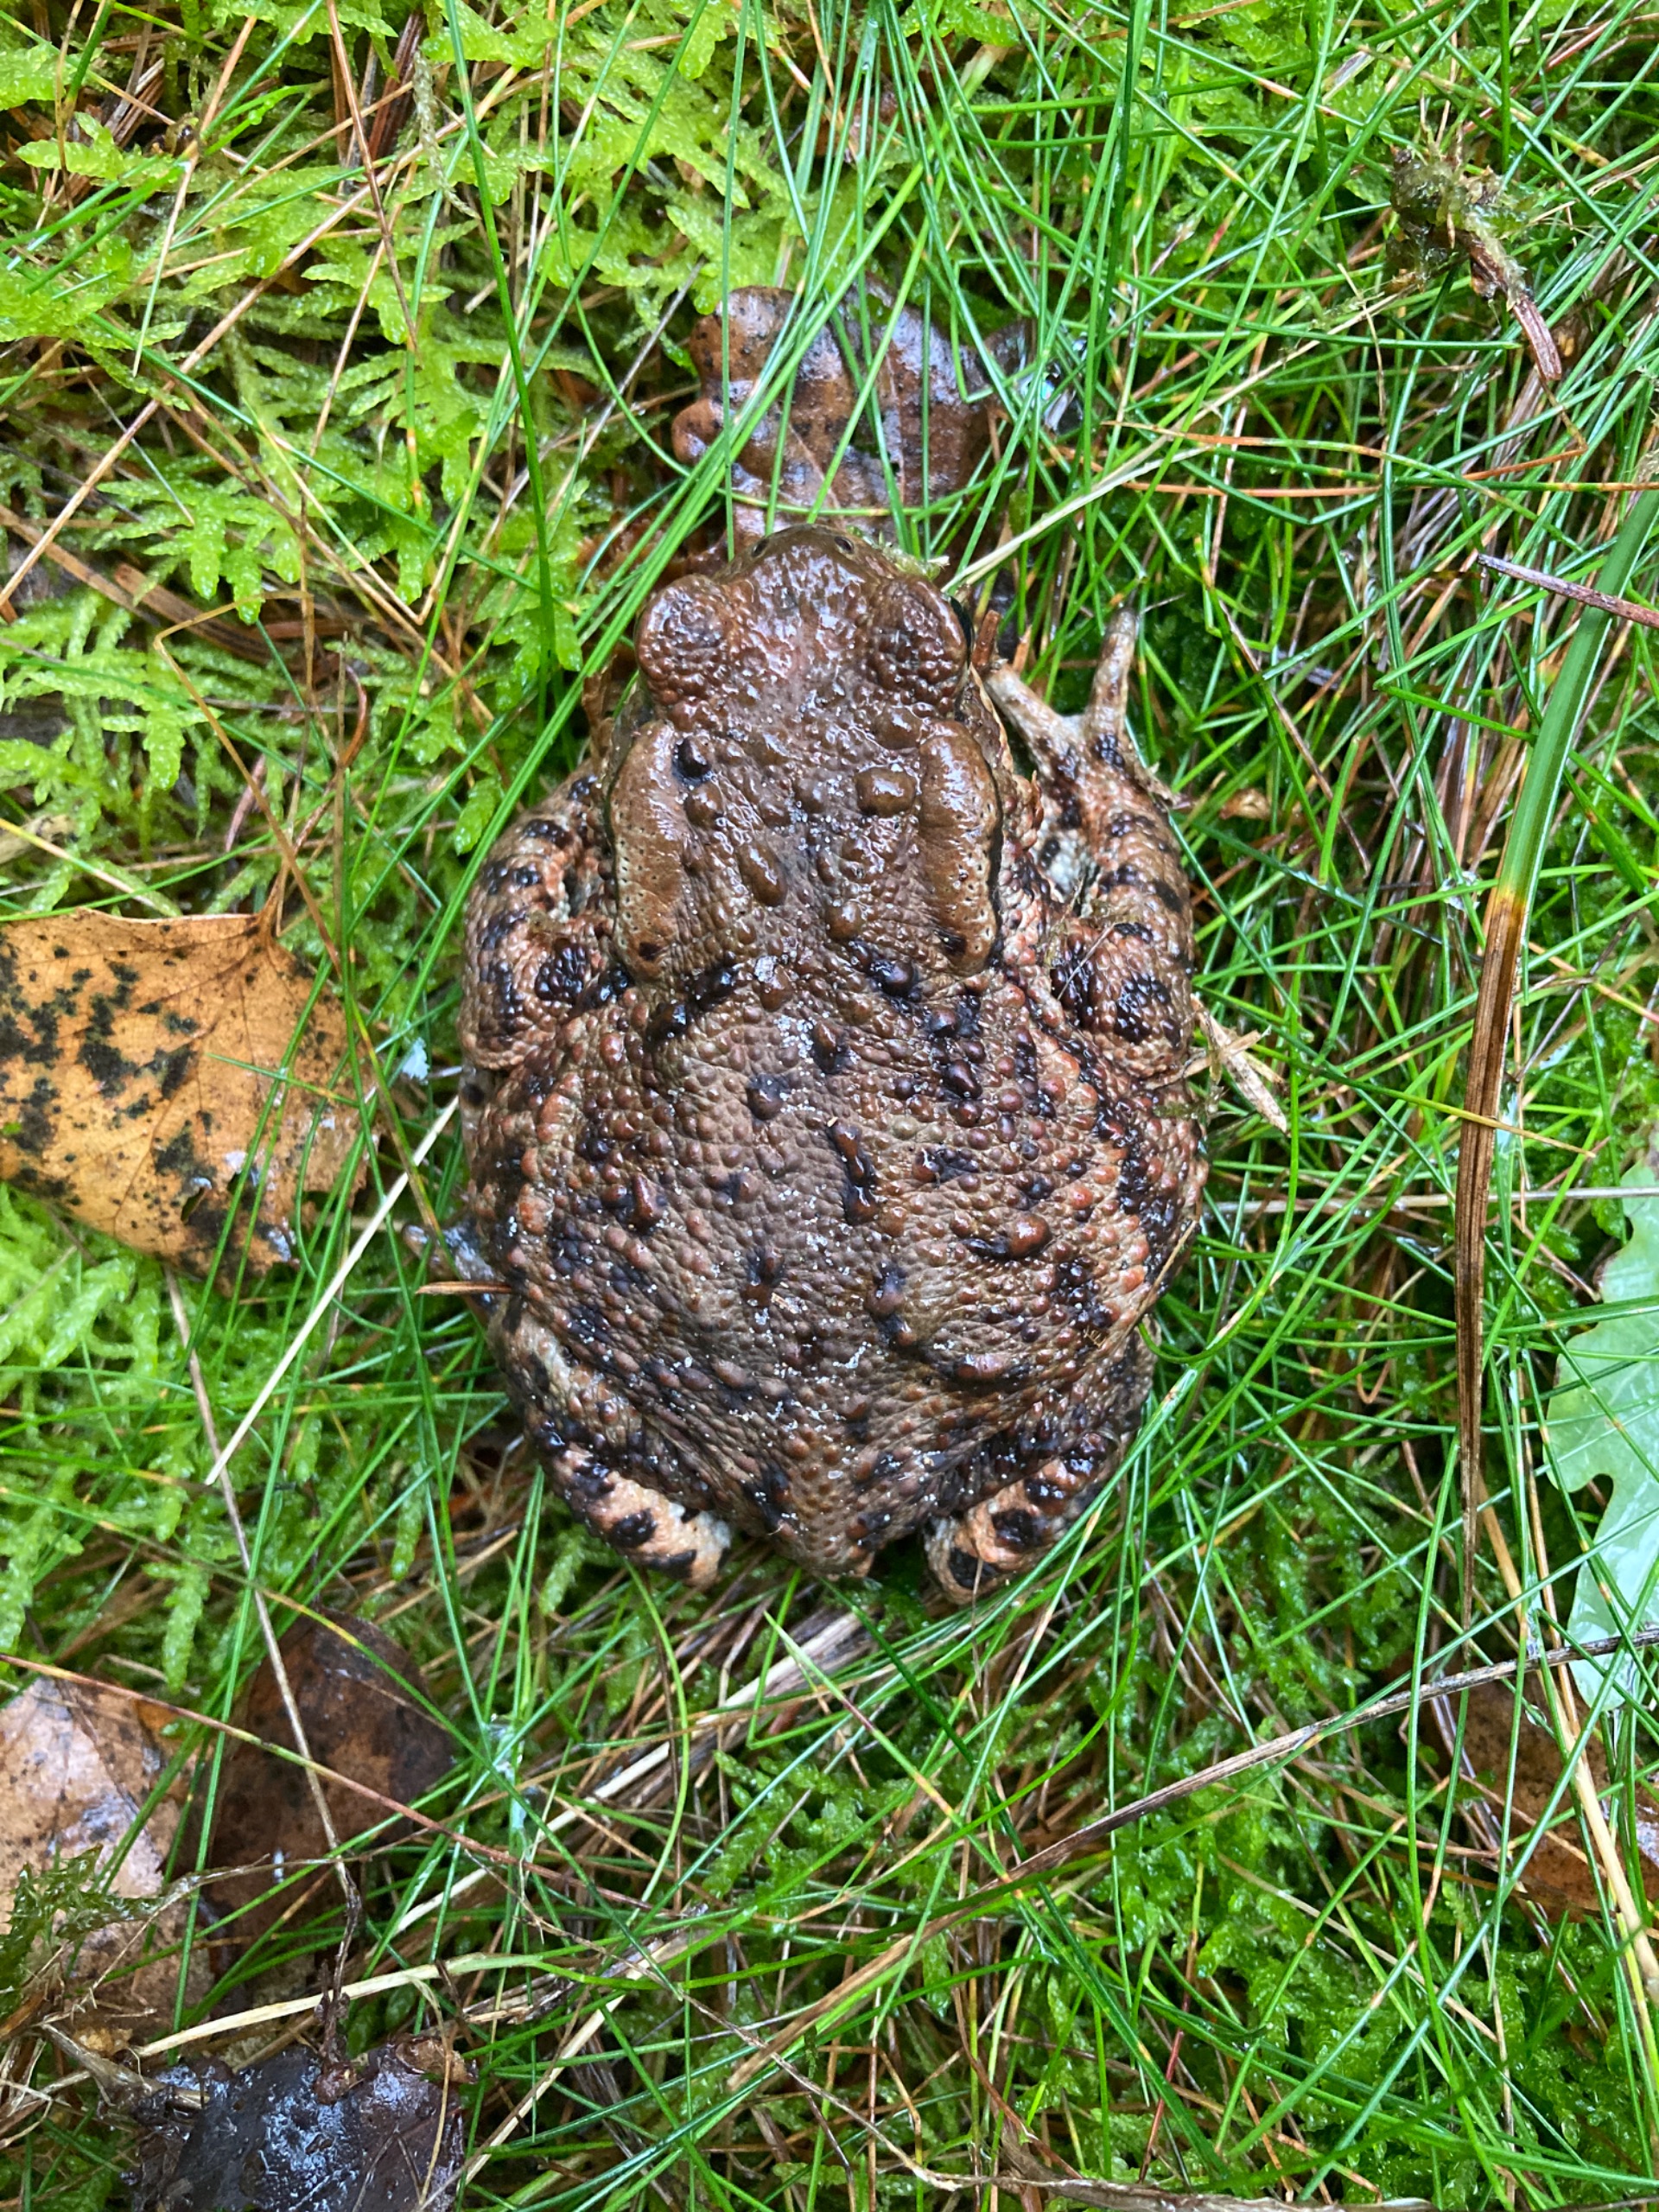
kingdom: Animalia
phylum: Chordata
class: Amphibia
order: Anura
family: Bufonidae
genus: Bufo
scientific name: Bufo bufo
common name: Skrubtudse
